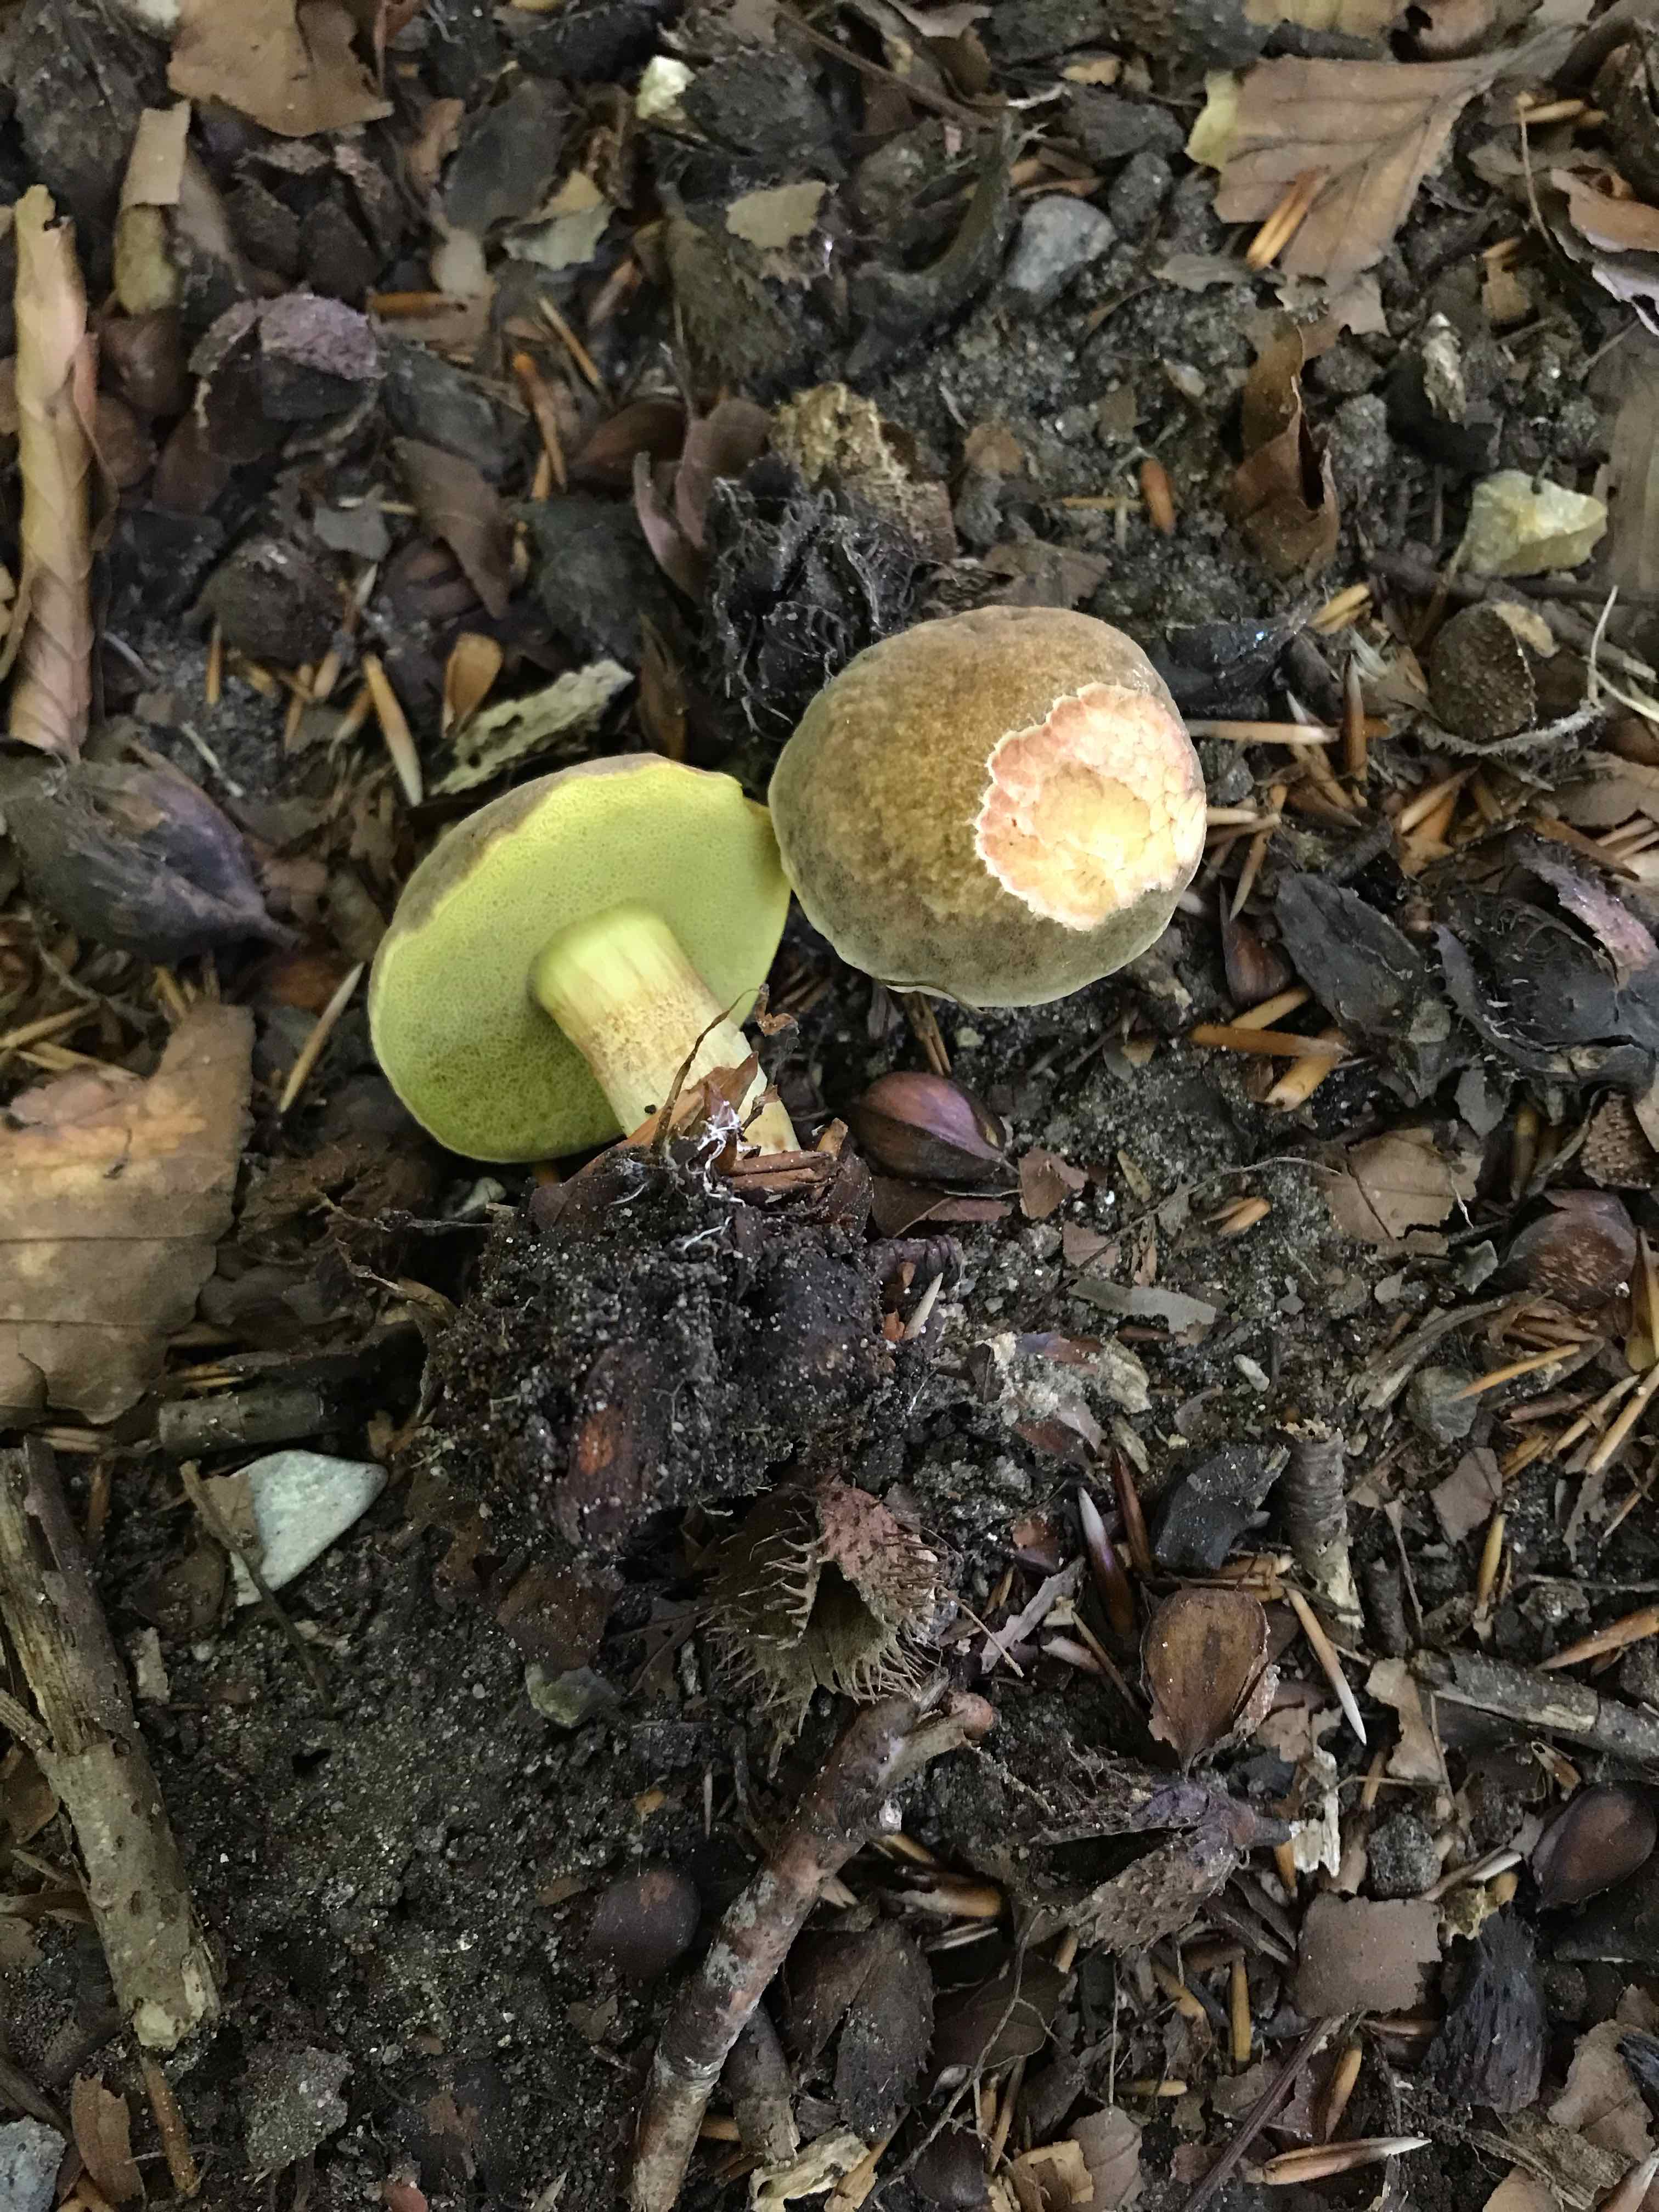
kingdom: Fungi
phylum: Basidiomycota
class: Agaricomycetes
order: Boletales
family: Boletaceae
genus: Xerocomellus
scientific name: Xerocomellus
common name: dværgrørhat
